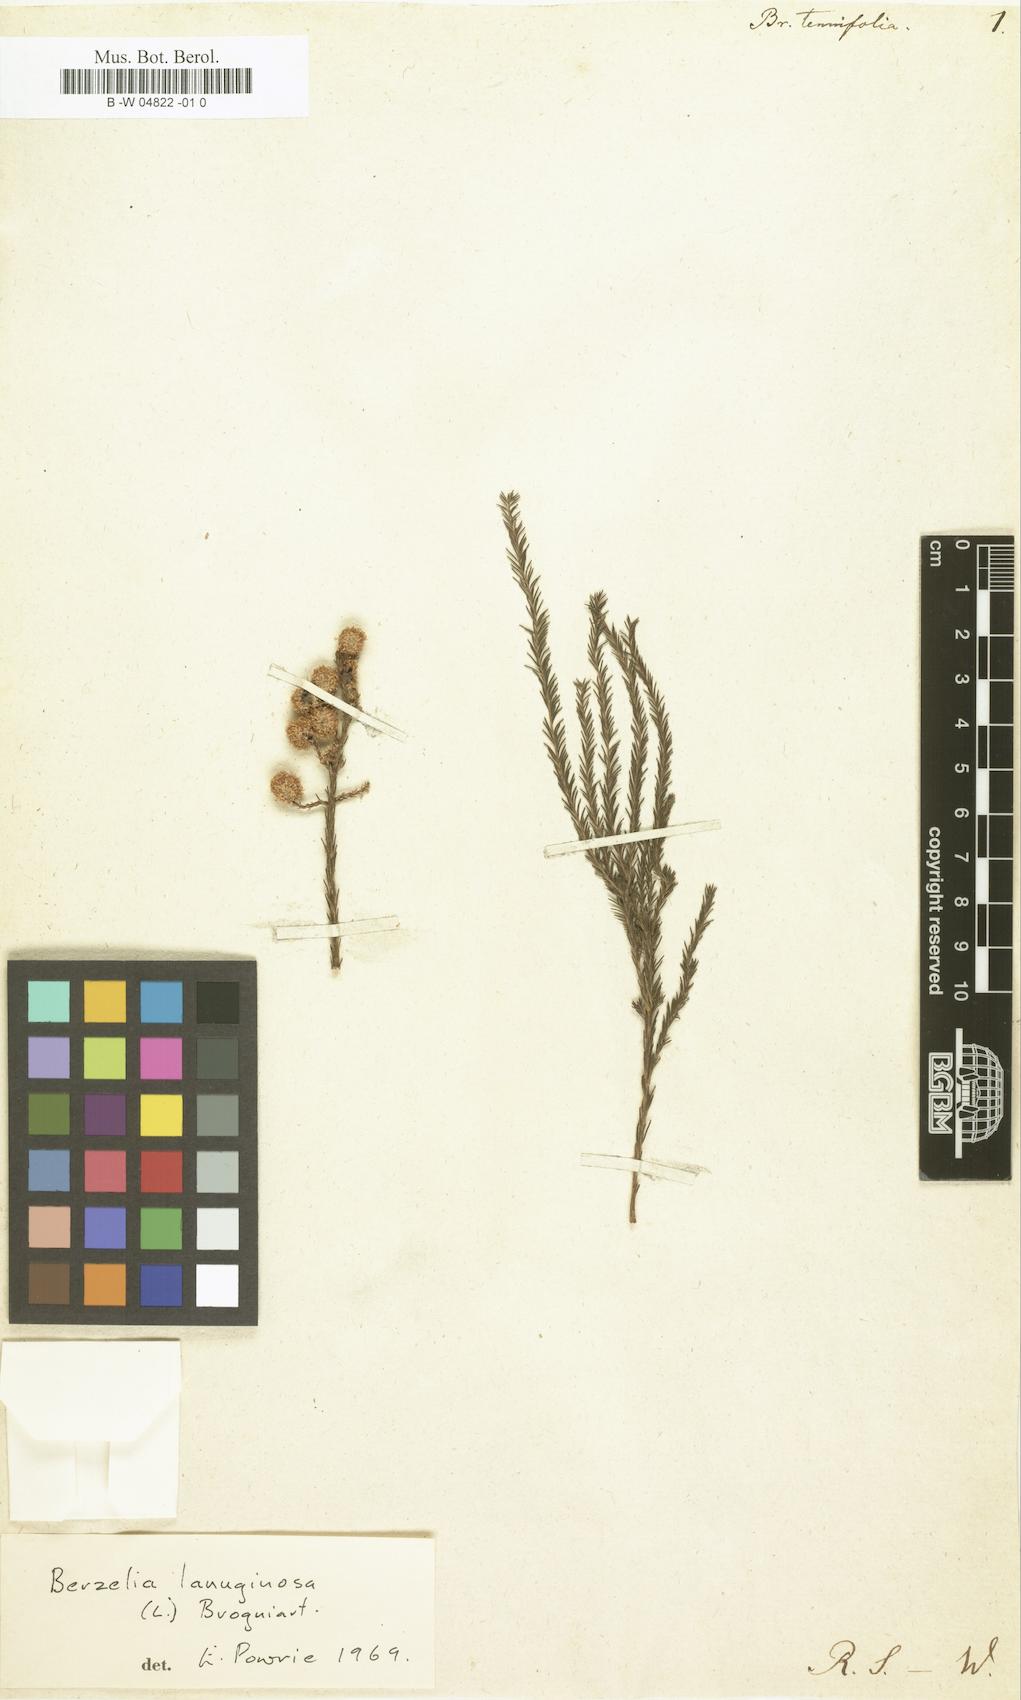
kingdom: Plantae
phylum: Tracheophyta
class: Magnoliopsida
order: Bruniales
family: Bruniaceae
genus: Berzelia
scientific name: Berzelia lanuginosa
